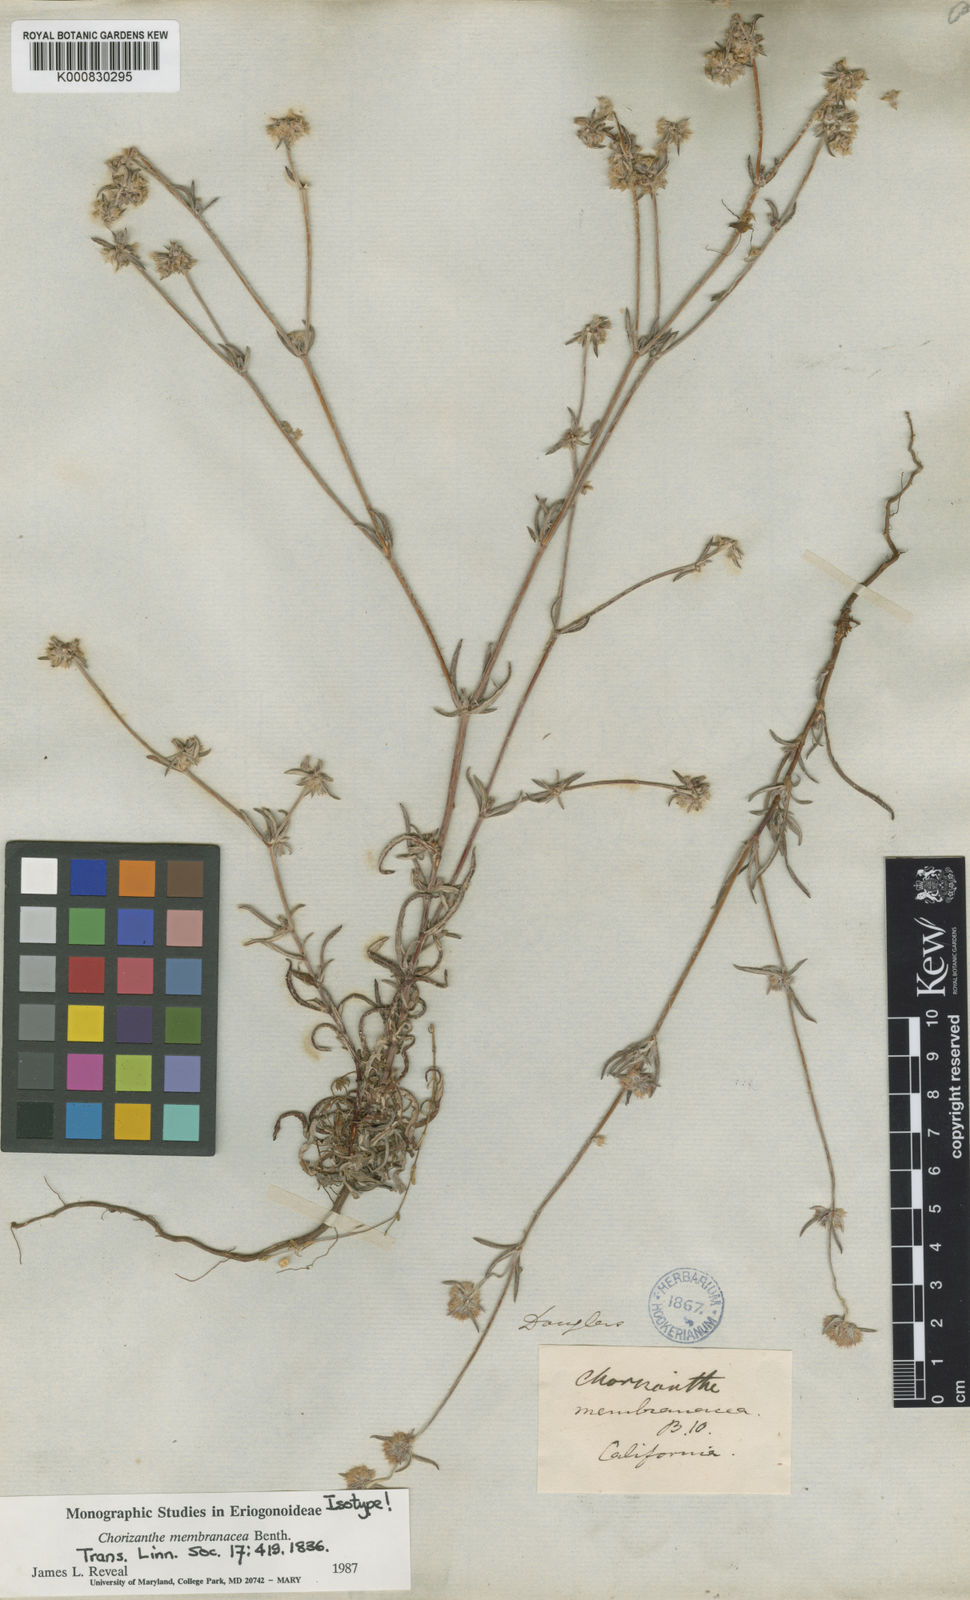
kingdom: Plantae
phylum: Tracheophyta
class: Magnoliopsida
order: Caryophyllales
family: Polygonaceae
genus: Chorizanthe
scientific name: Chorizanthe membranacea
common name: Pink spineflower
